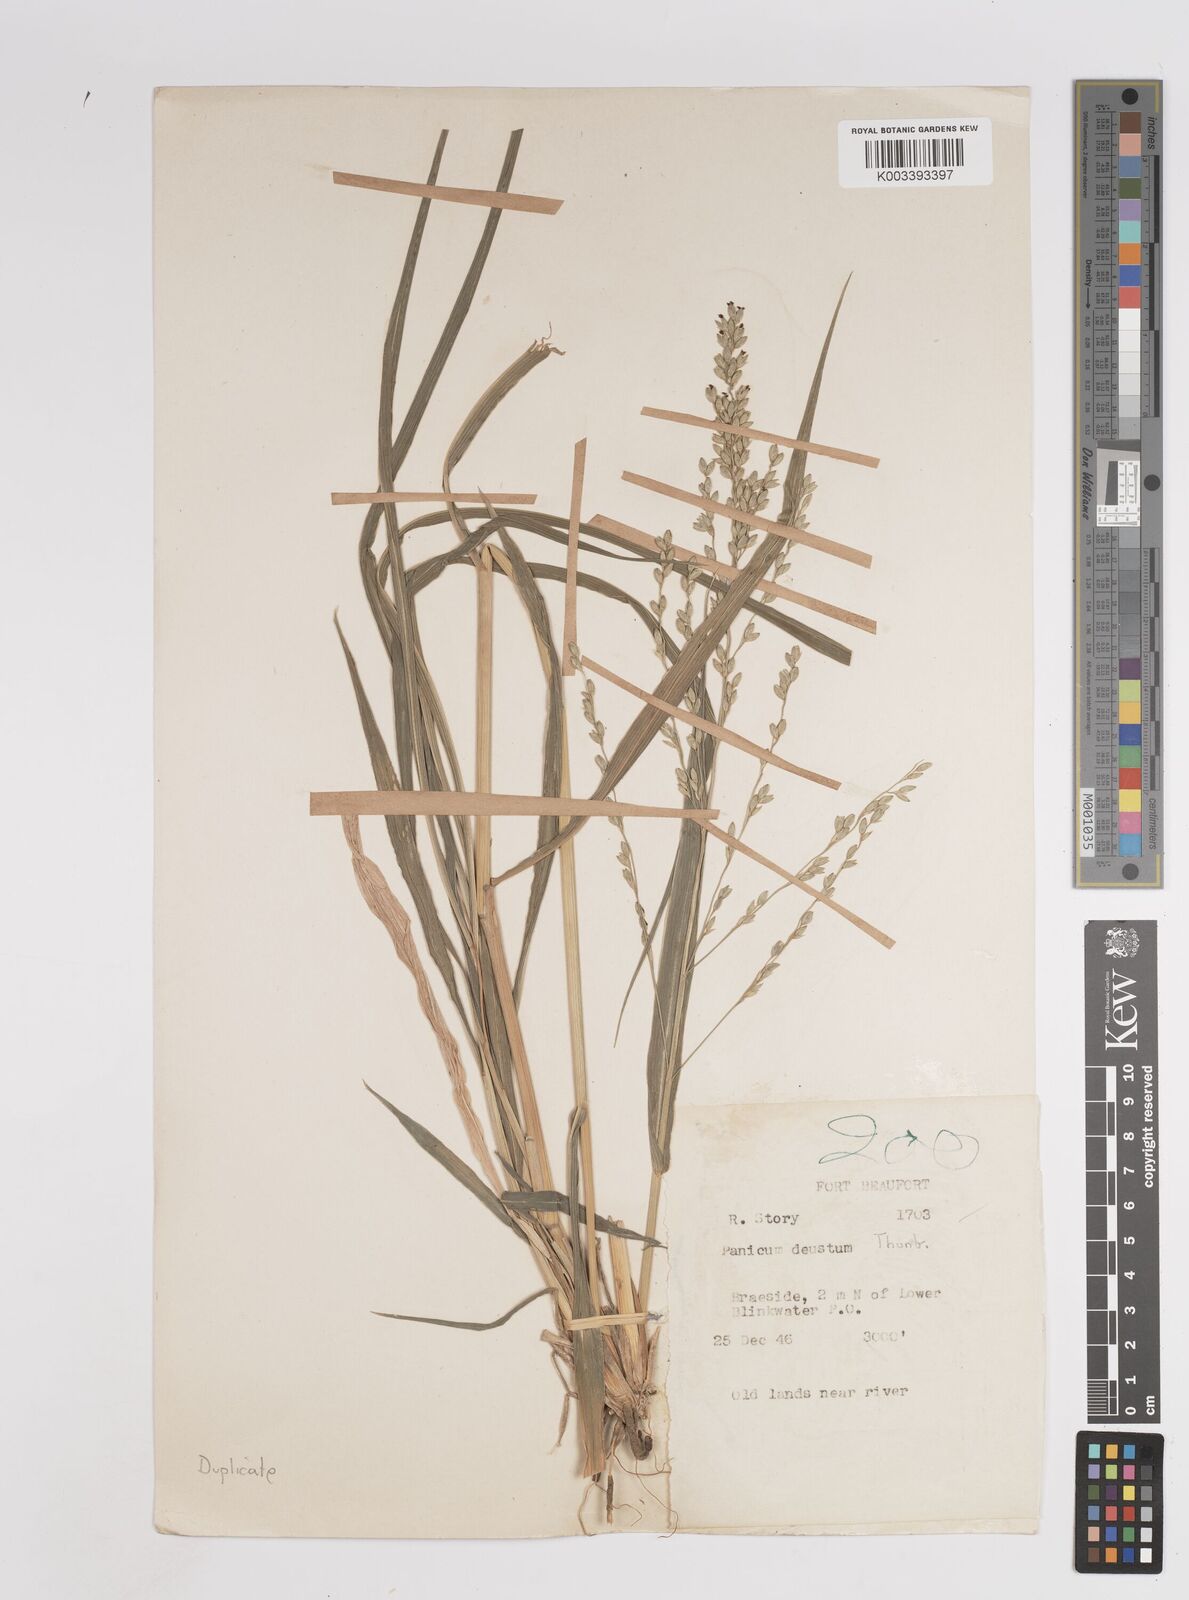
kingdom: Plantae
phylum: Tracheophyta
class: Liliopsida
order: Poales
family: Poaceae
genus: Panicum
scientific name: Panicum deustum
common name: Reed panicum
